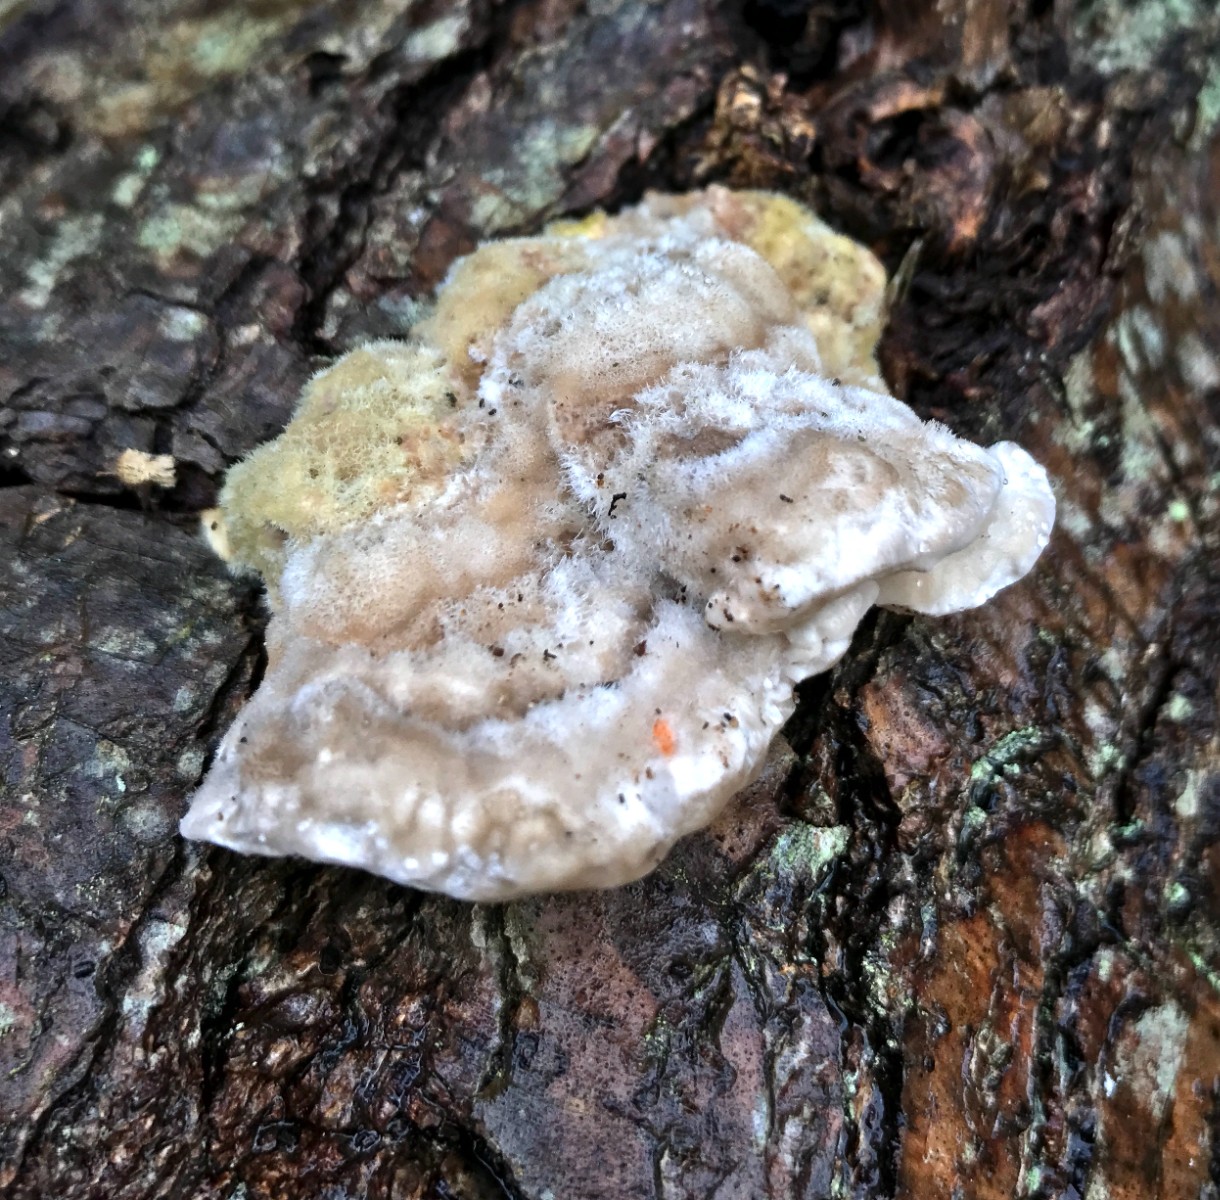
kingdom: Fungi
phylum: Basidiomycota
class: Agaricomycetes
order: Polyporales
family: Polyporaceae
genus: Lenzites
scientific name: Lenzites betulinus
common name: birke-læderporesvamp
